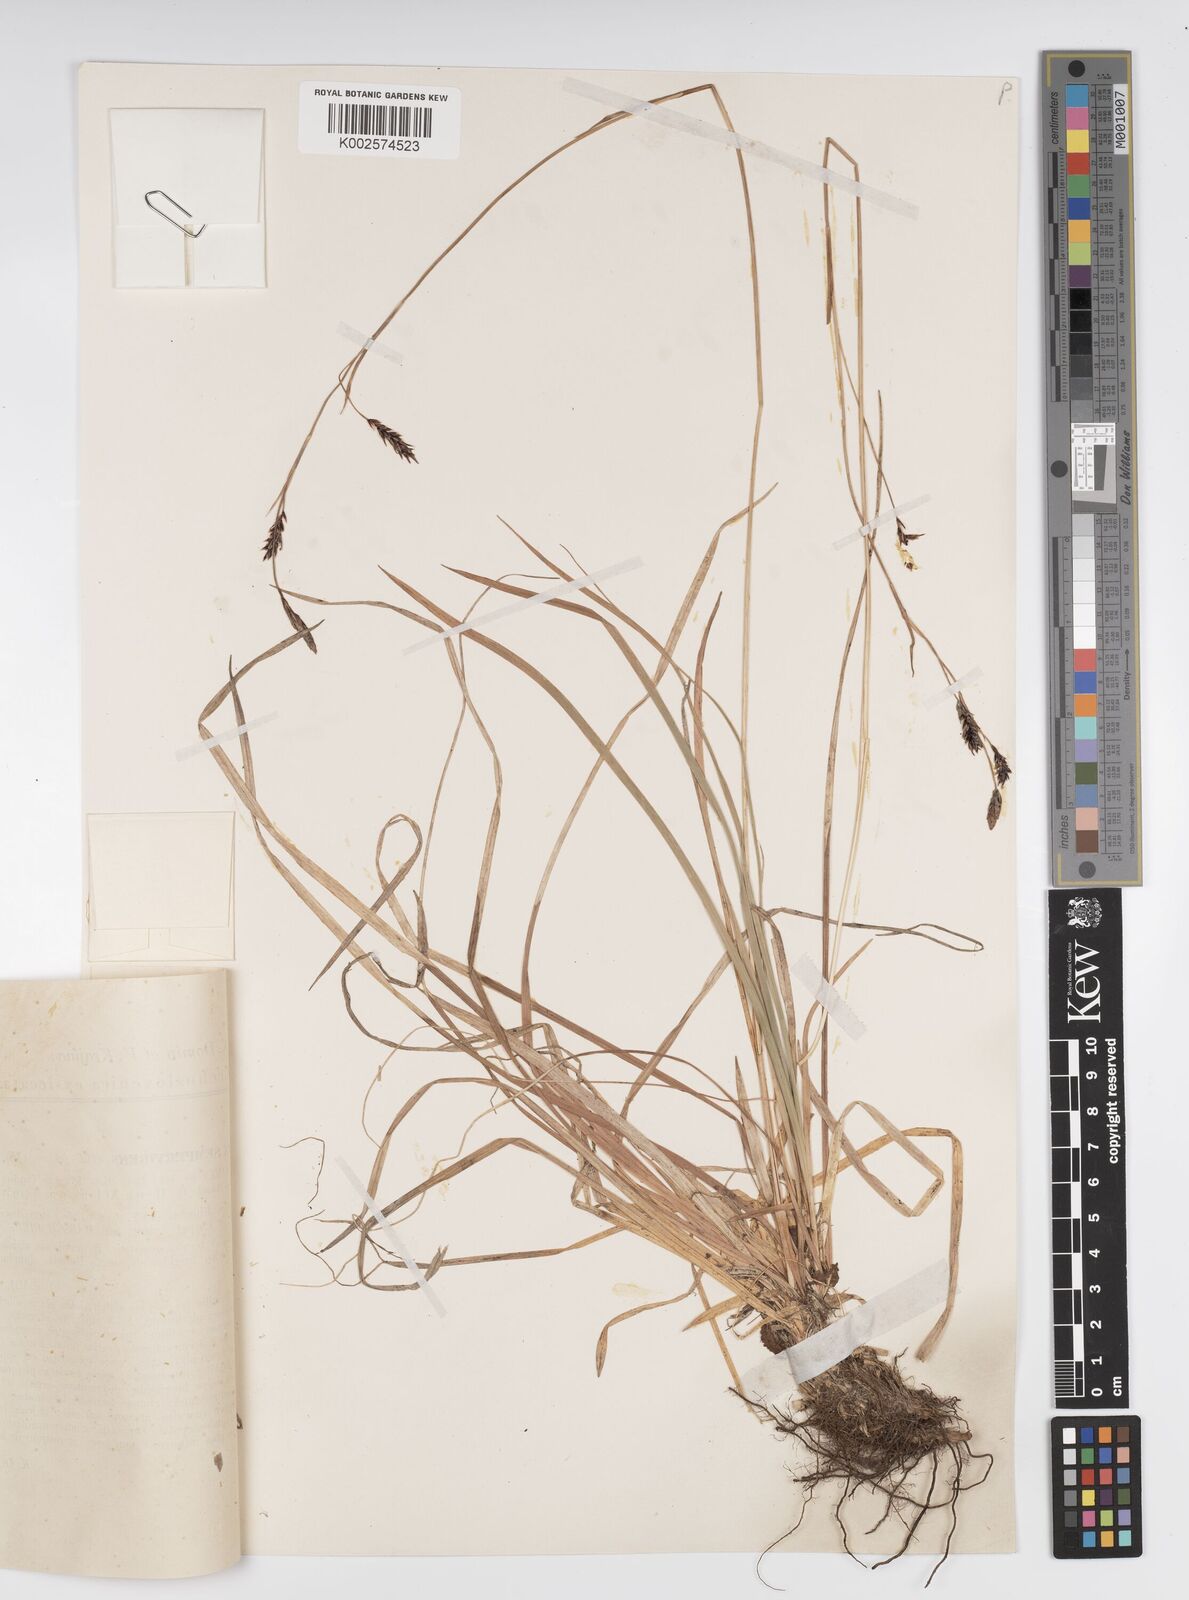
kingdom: Plantae
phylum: Tracheophyta
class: Liliopsida
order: Poales
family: Cyperaceae
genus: Carex
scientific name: Carex sempervirens
